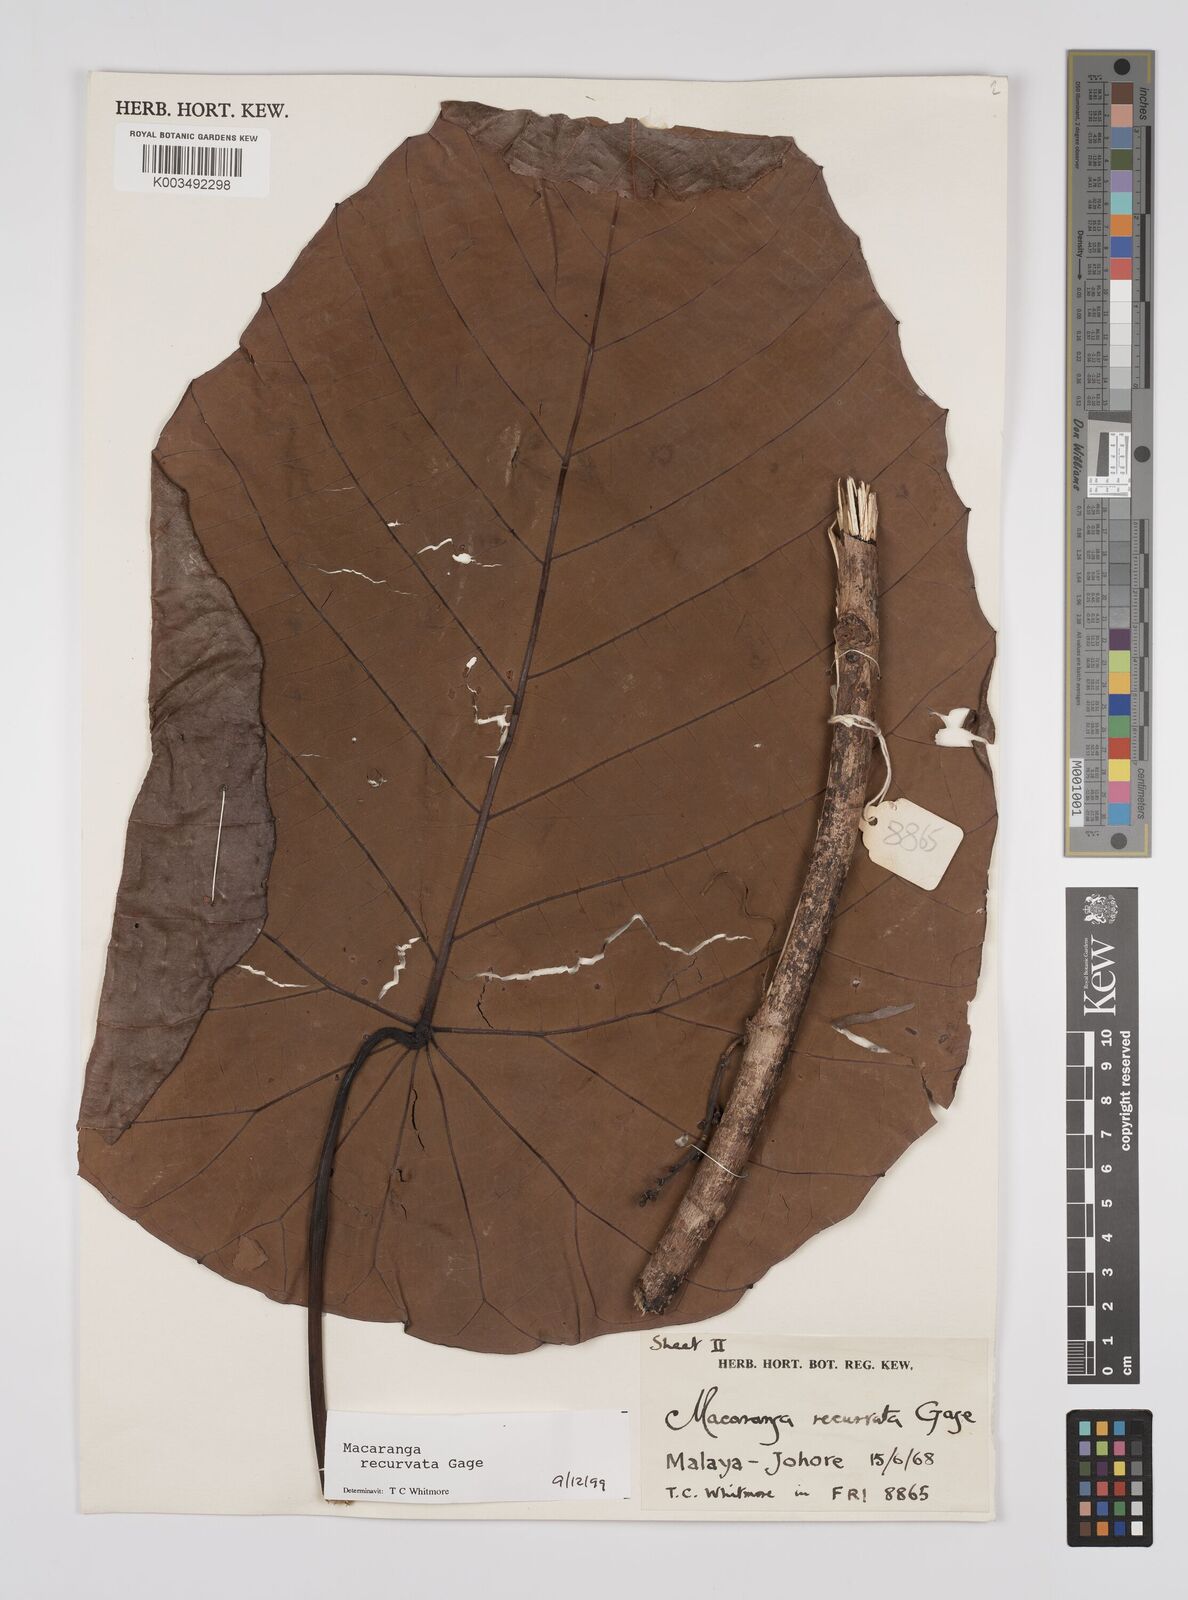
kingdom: Plantae
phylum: Tracheophyta
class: Magnoliopsida
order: Malpighiales
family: Euphorbiaceae
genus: Macaranga
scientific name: Macaranga recurvata
